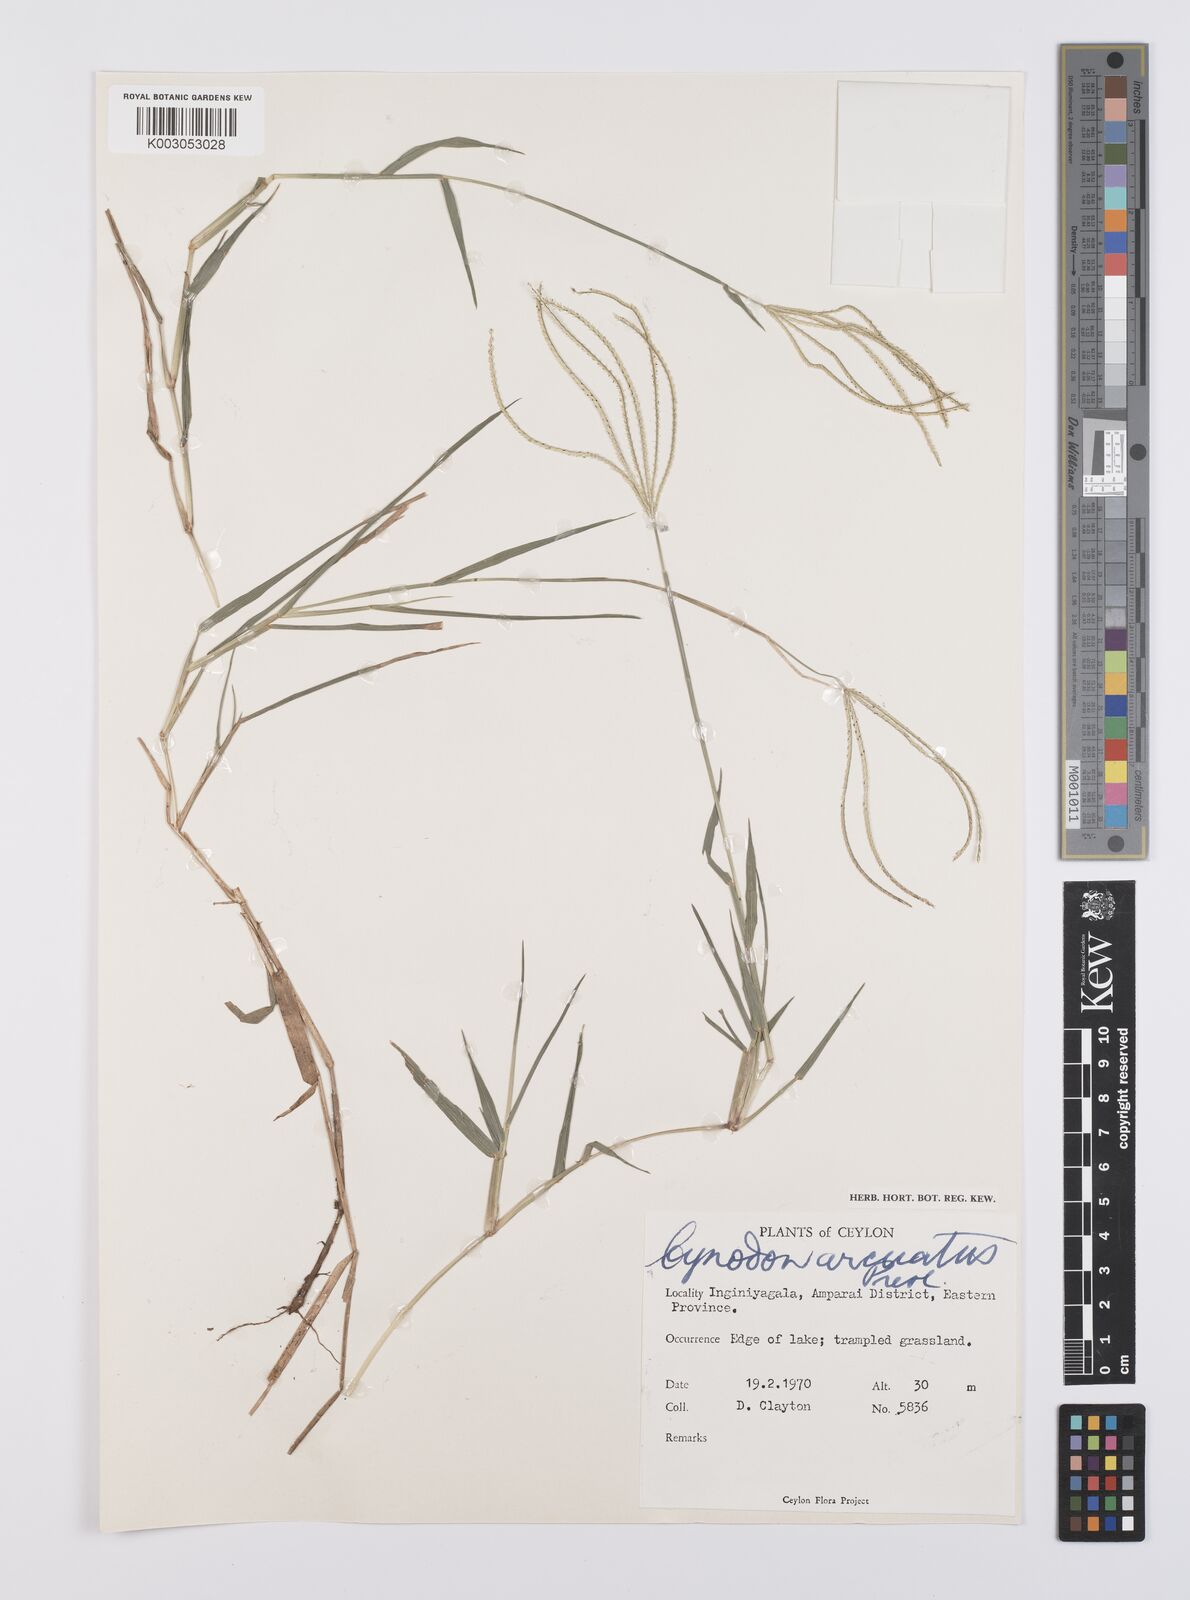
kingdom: Plantae
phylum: Tracheophyta
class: Liliopsida
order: Poales
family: Poaceae
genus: Cynodon
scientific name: Cynodon radiatus
